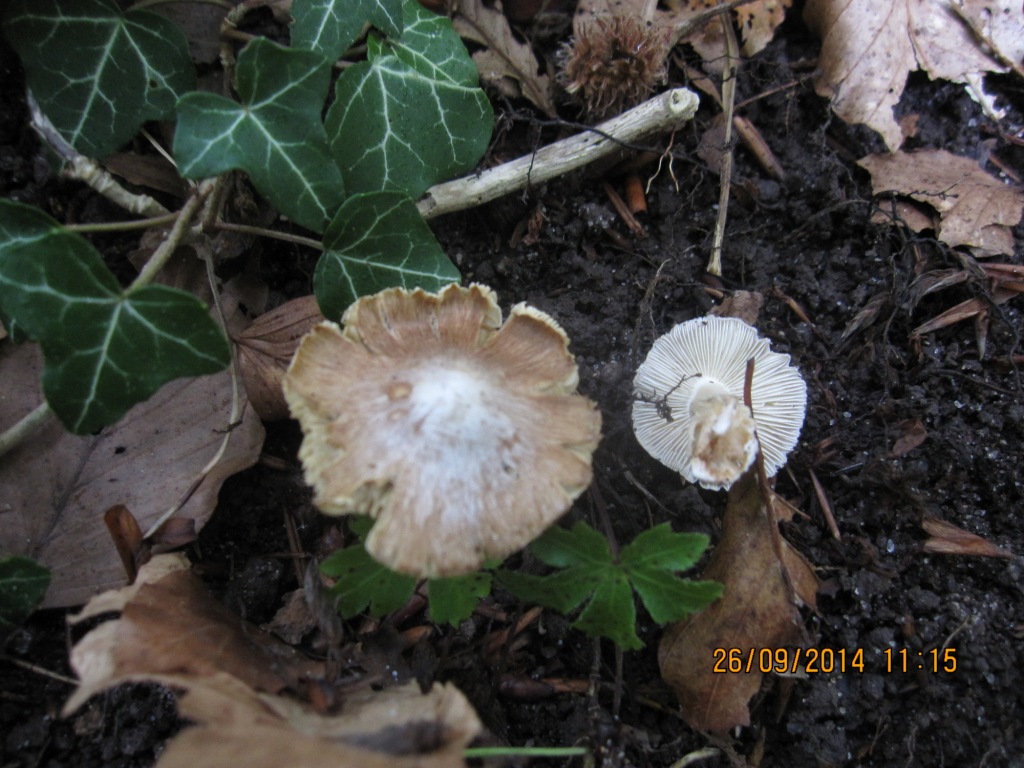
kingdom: Fungi
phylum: Basidiomycota
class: Agaricomycetes
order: Agaricales
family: Inocybaceae
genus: Inosperma
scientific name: Inosperma
